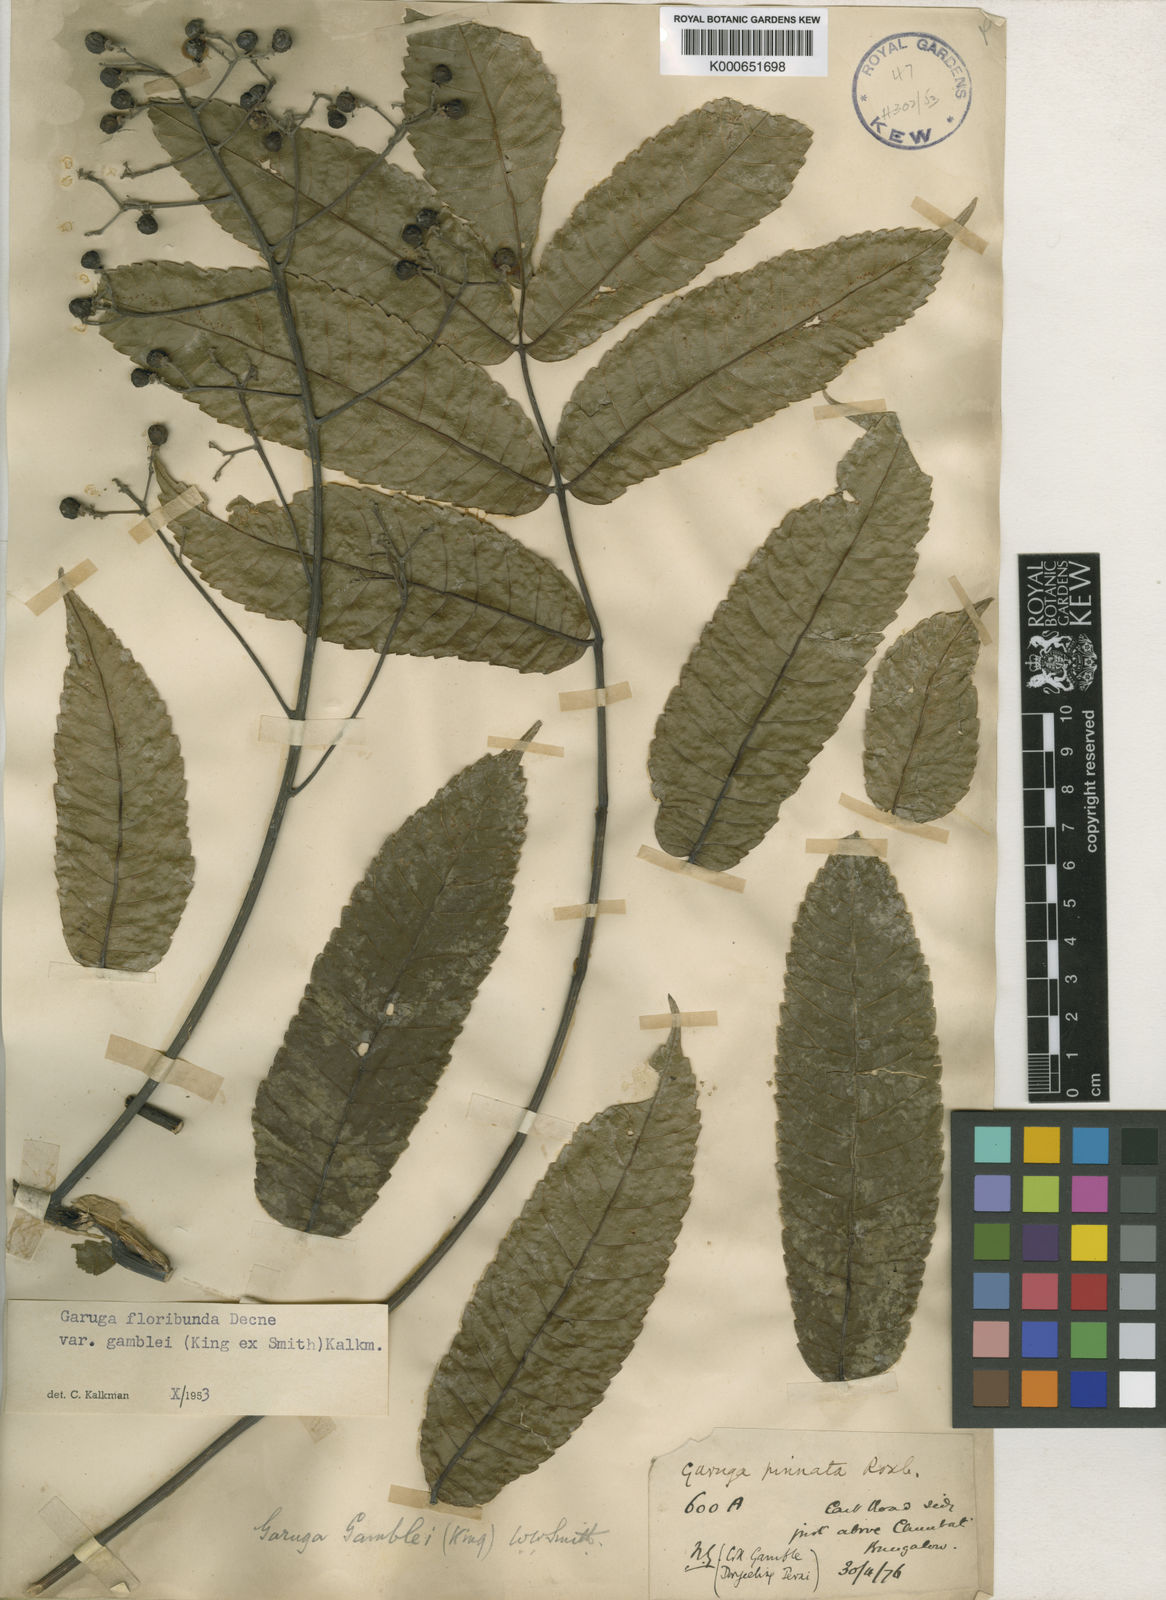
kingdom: Plantae
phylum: Tracheophyta
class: Magnoliopsida
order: Sapindales
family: Burseraceae
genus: Garuga
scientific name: Garuga floribunda
